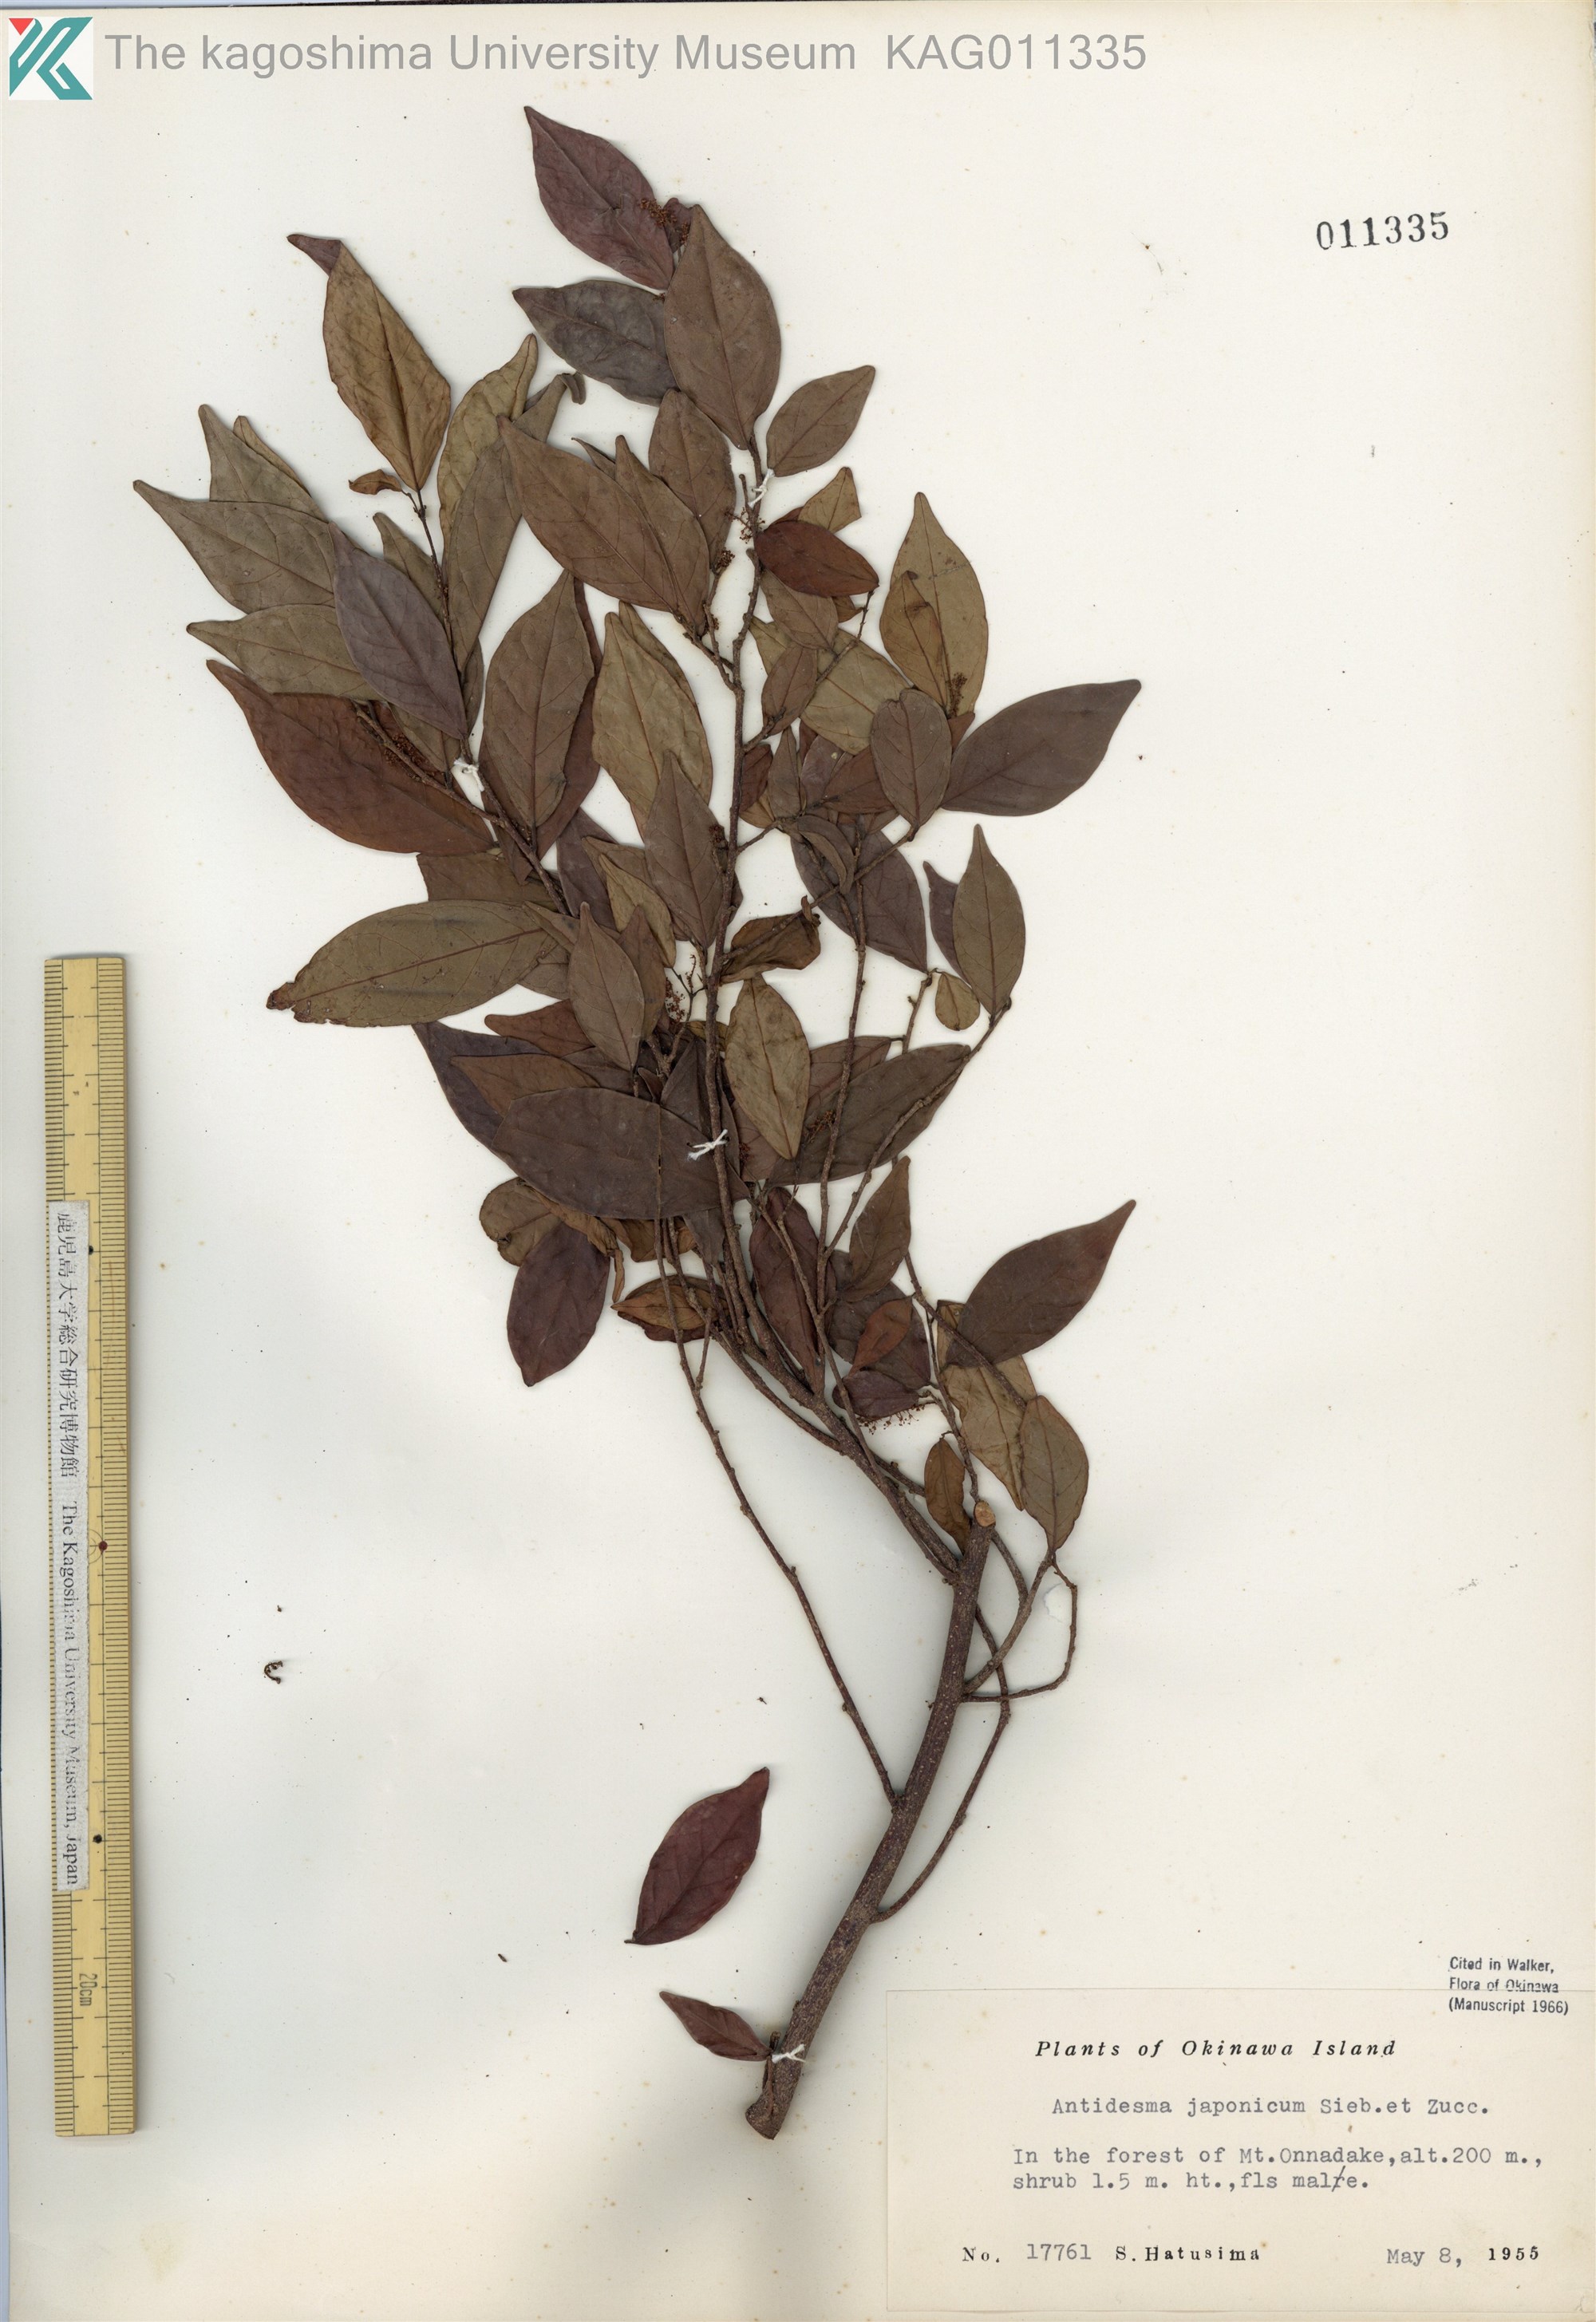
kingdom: Plantae
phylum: Tracheophyta
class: Magnoliopsida
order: Malpighiales
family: Phyllanthaceae
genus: Antidesma
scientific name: Antidesma japonicum
